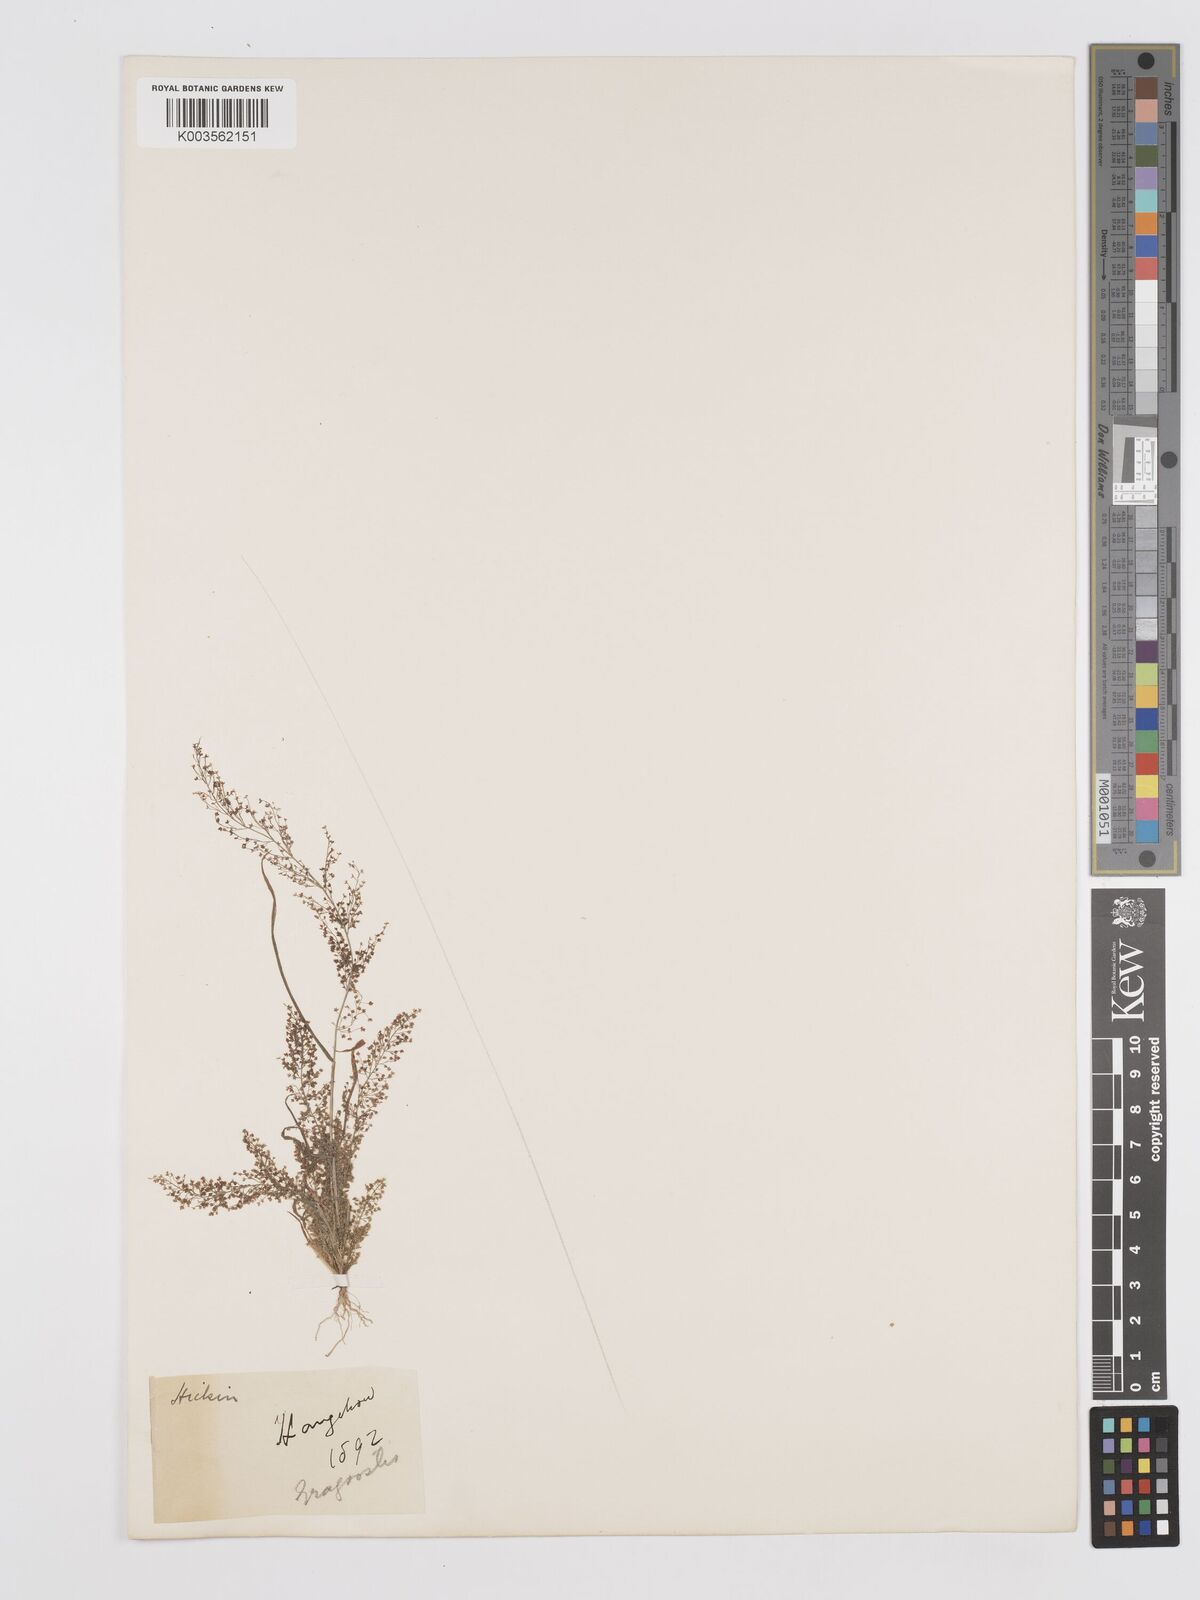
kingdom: Plantae
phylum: Tracheophyta
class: Liliopsida
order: Poales
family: Poaceae
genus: Eragrostis
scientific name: Eragrostis japonica
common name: Pond lovegrass
